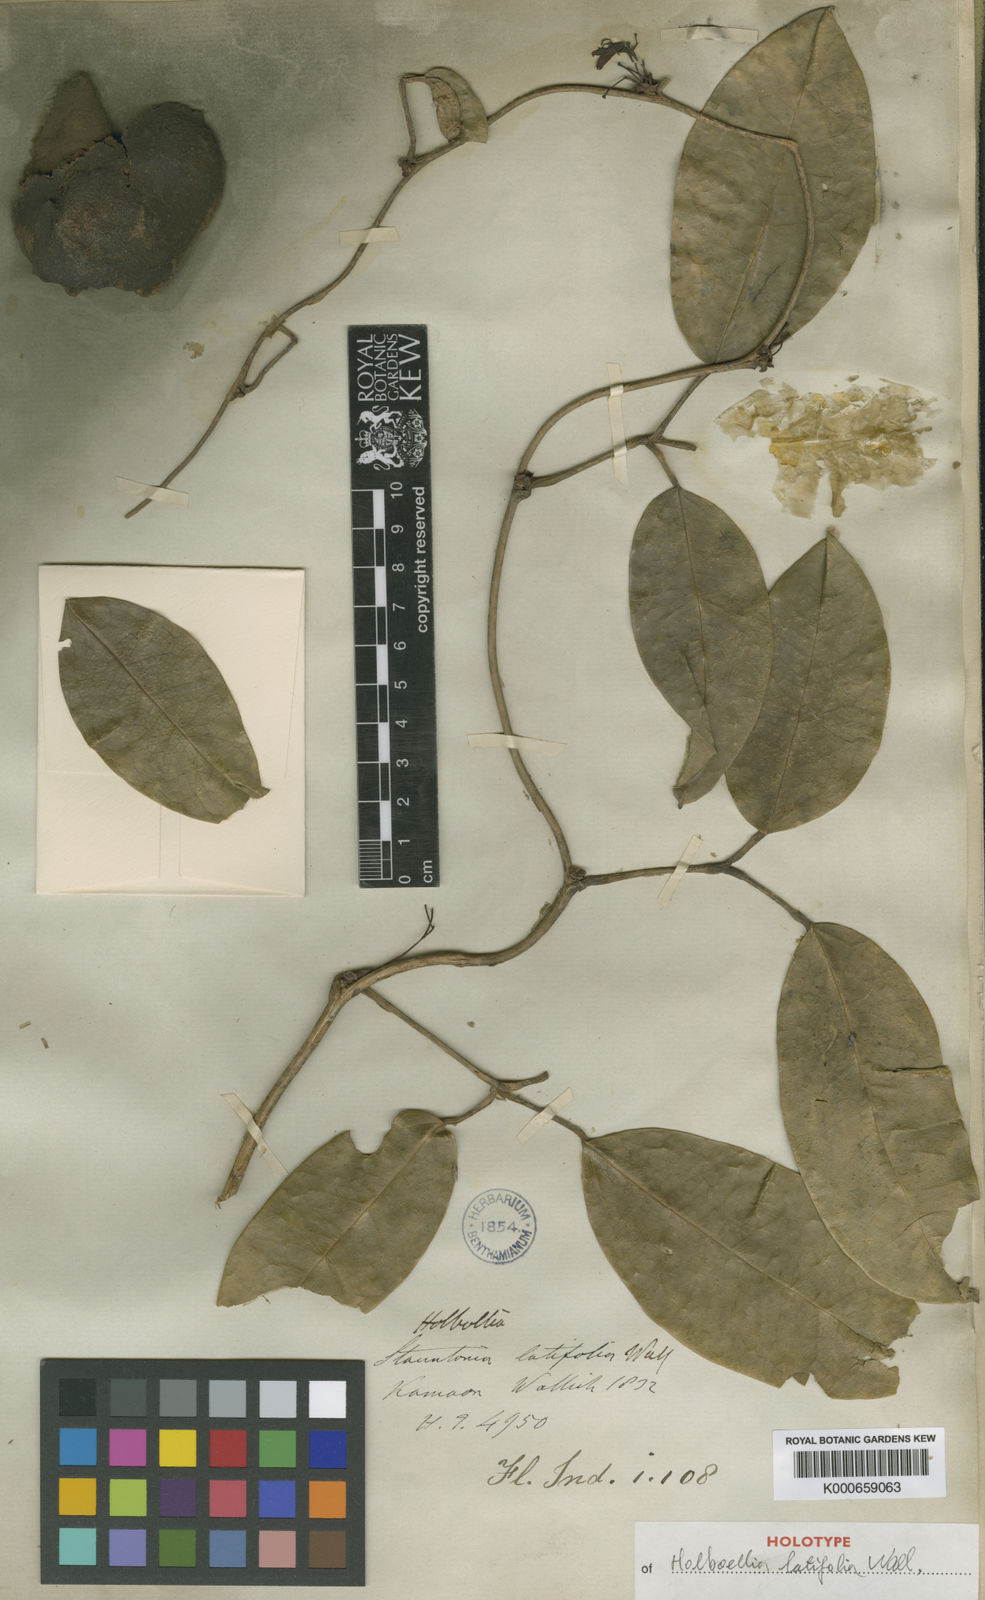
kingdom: Plantae
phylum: Tracheophyta
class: Magnoliopsida
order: Ranunculales
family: Lardizabalaceae
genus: Stauntonia
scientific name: Stauntonia latifolia
